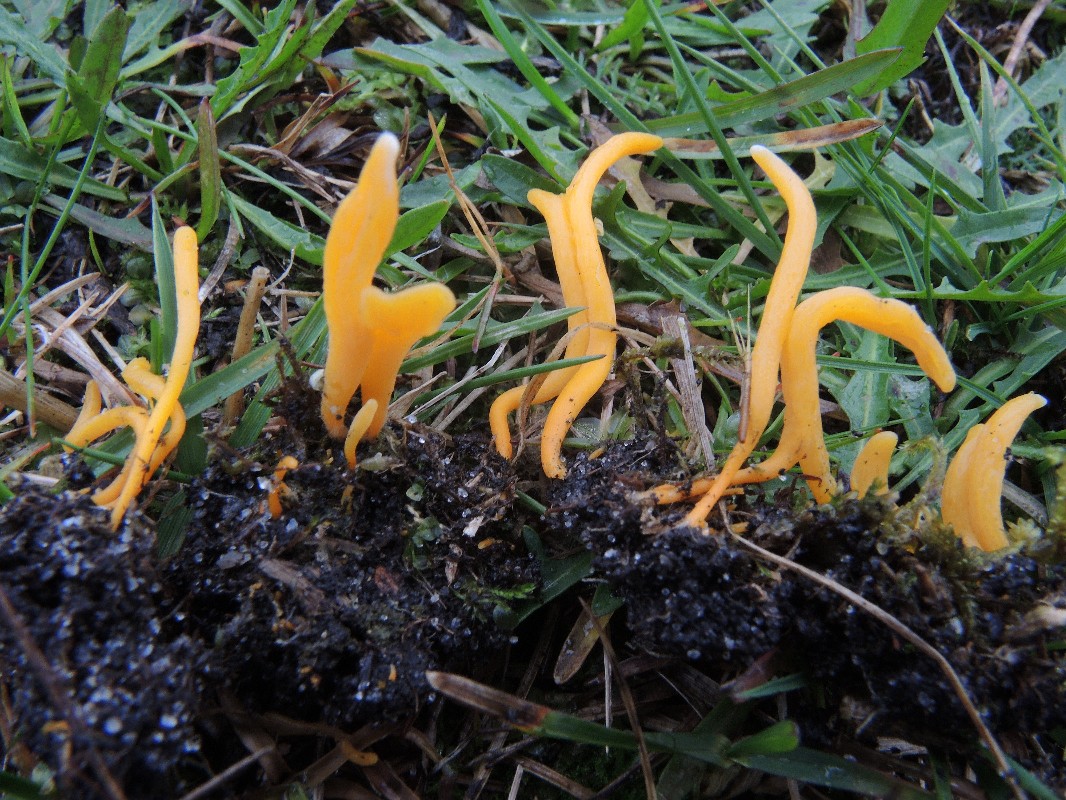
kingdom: Fungi
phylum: Basidiomycota
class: Agaricomycetes
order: Agaricales
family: Clavariaceae
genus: Clavulinopsis
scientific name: Clavulinopsis luteoalba
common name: abrikos-køllesvamp
